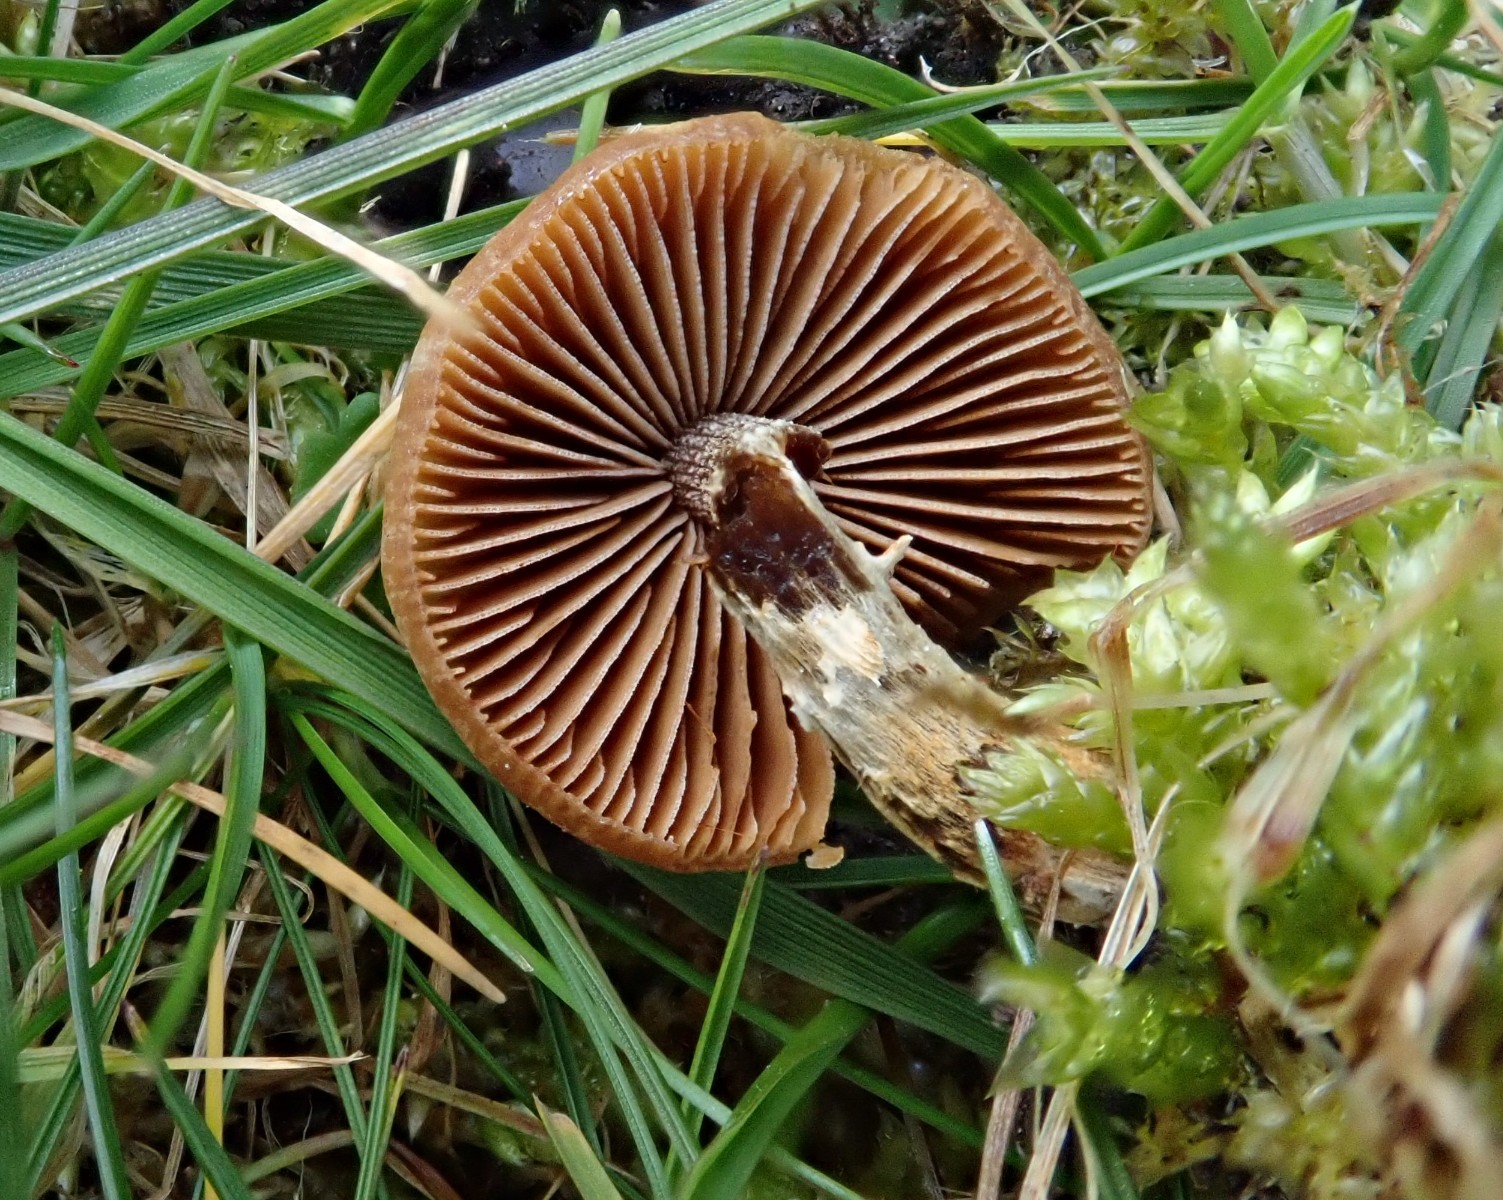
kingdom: Fungi
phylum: Basidiomycota
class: Agaricomycetes
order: Agaricales
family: Bolbitiaceae
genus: Conocybe
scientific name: Conocybe aporos
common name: tidlig dansehat
